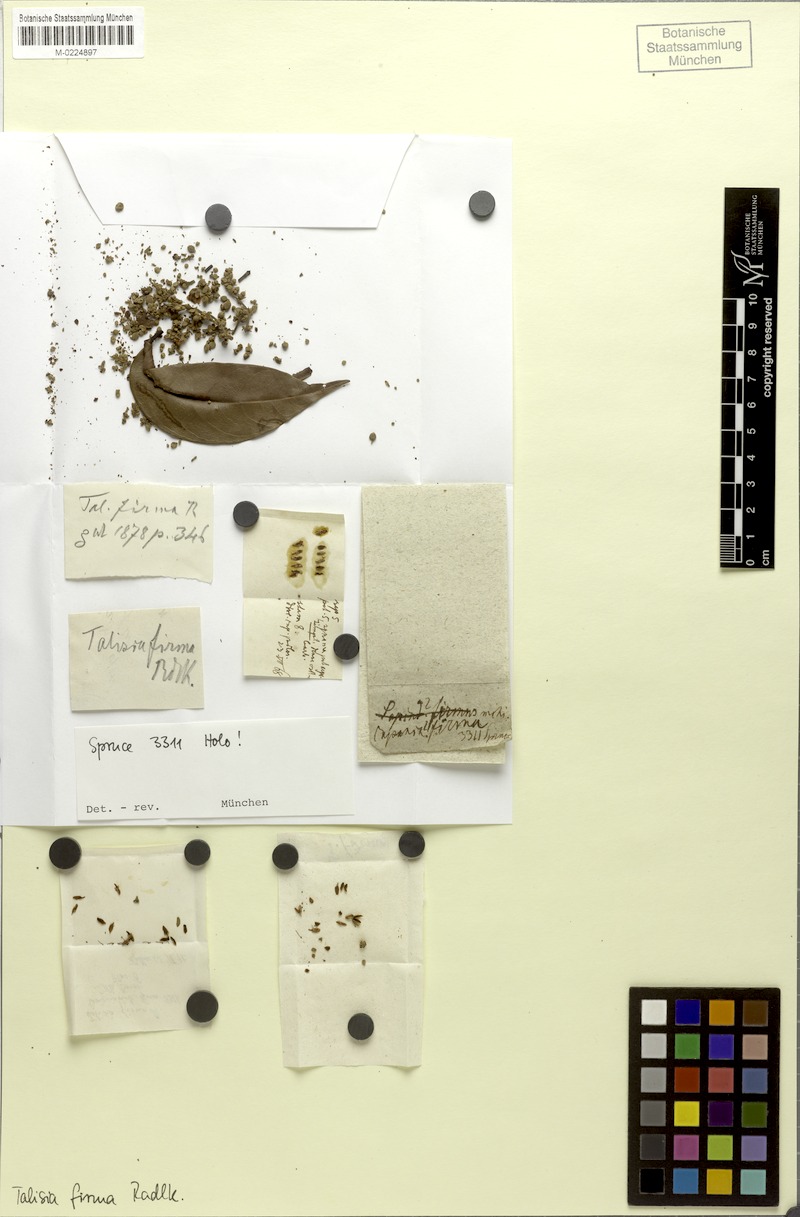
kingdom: Plantae
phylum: Tracheophyta
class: Magnoliopsida
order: Sapindales
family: Sapindaceae
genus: Talisia
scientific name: Talisia firma
